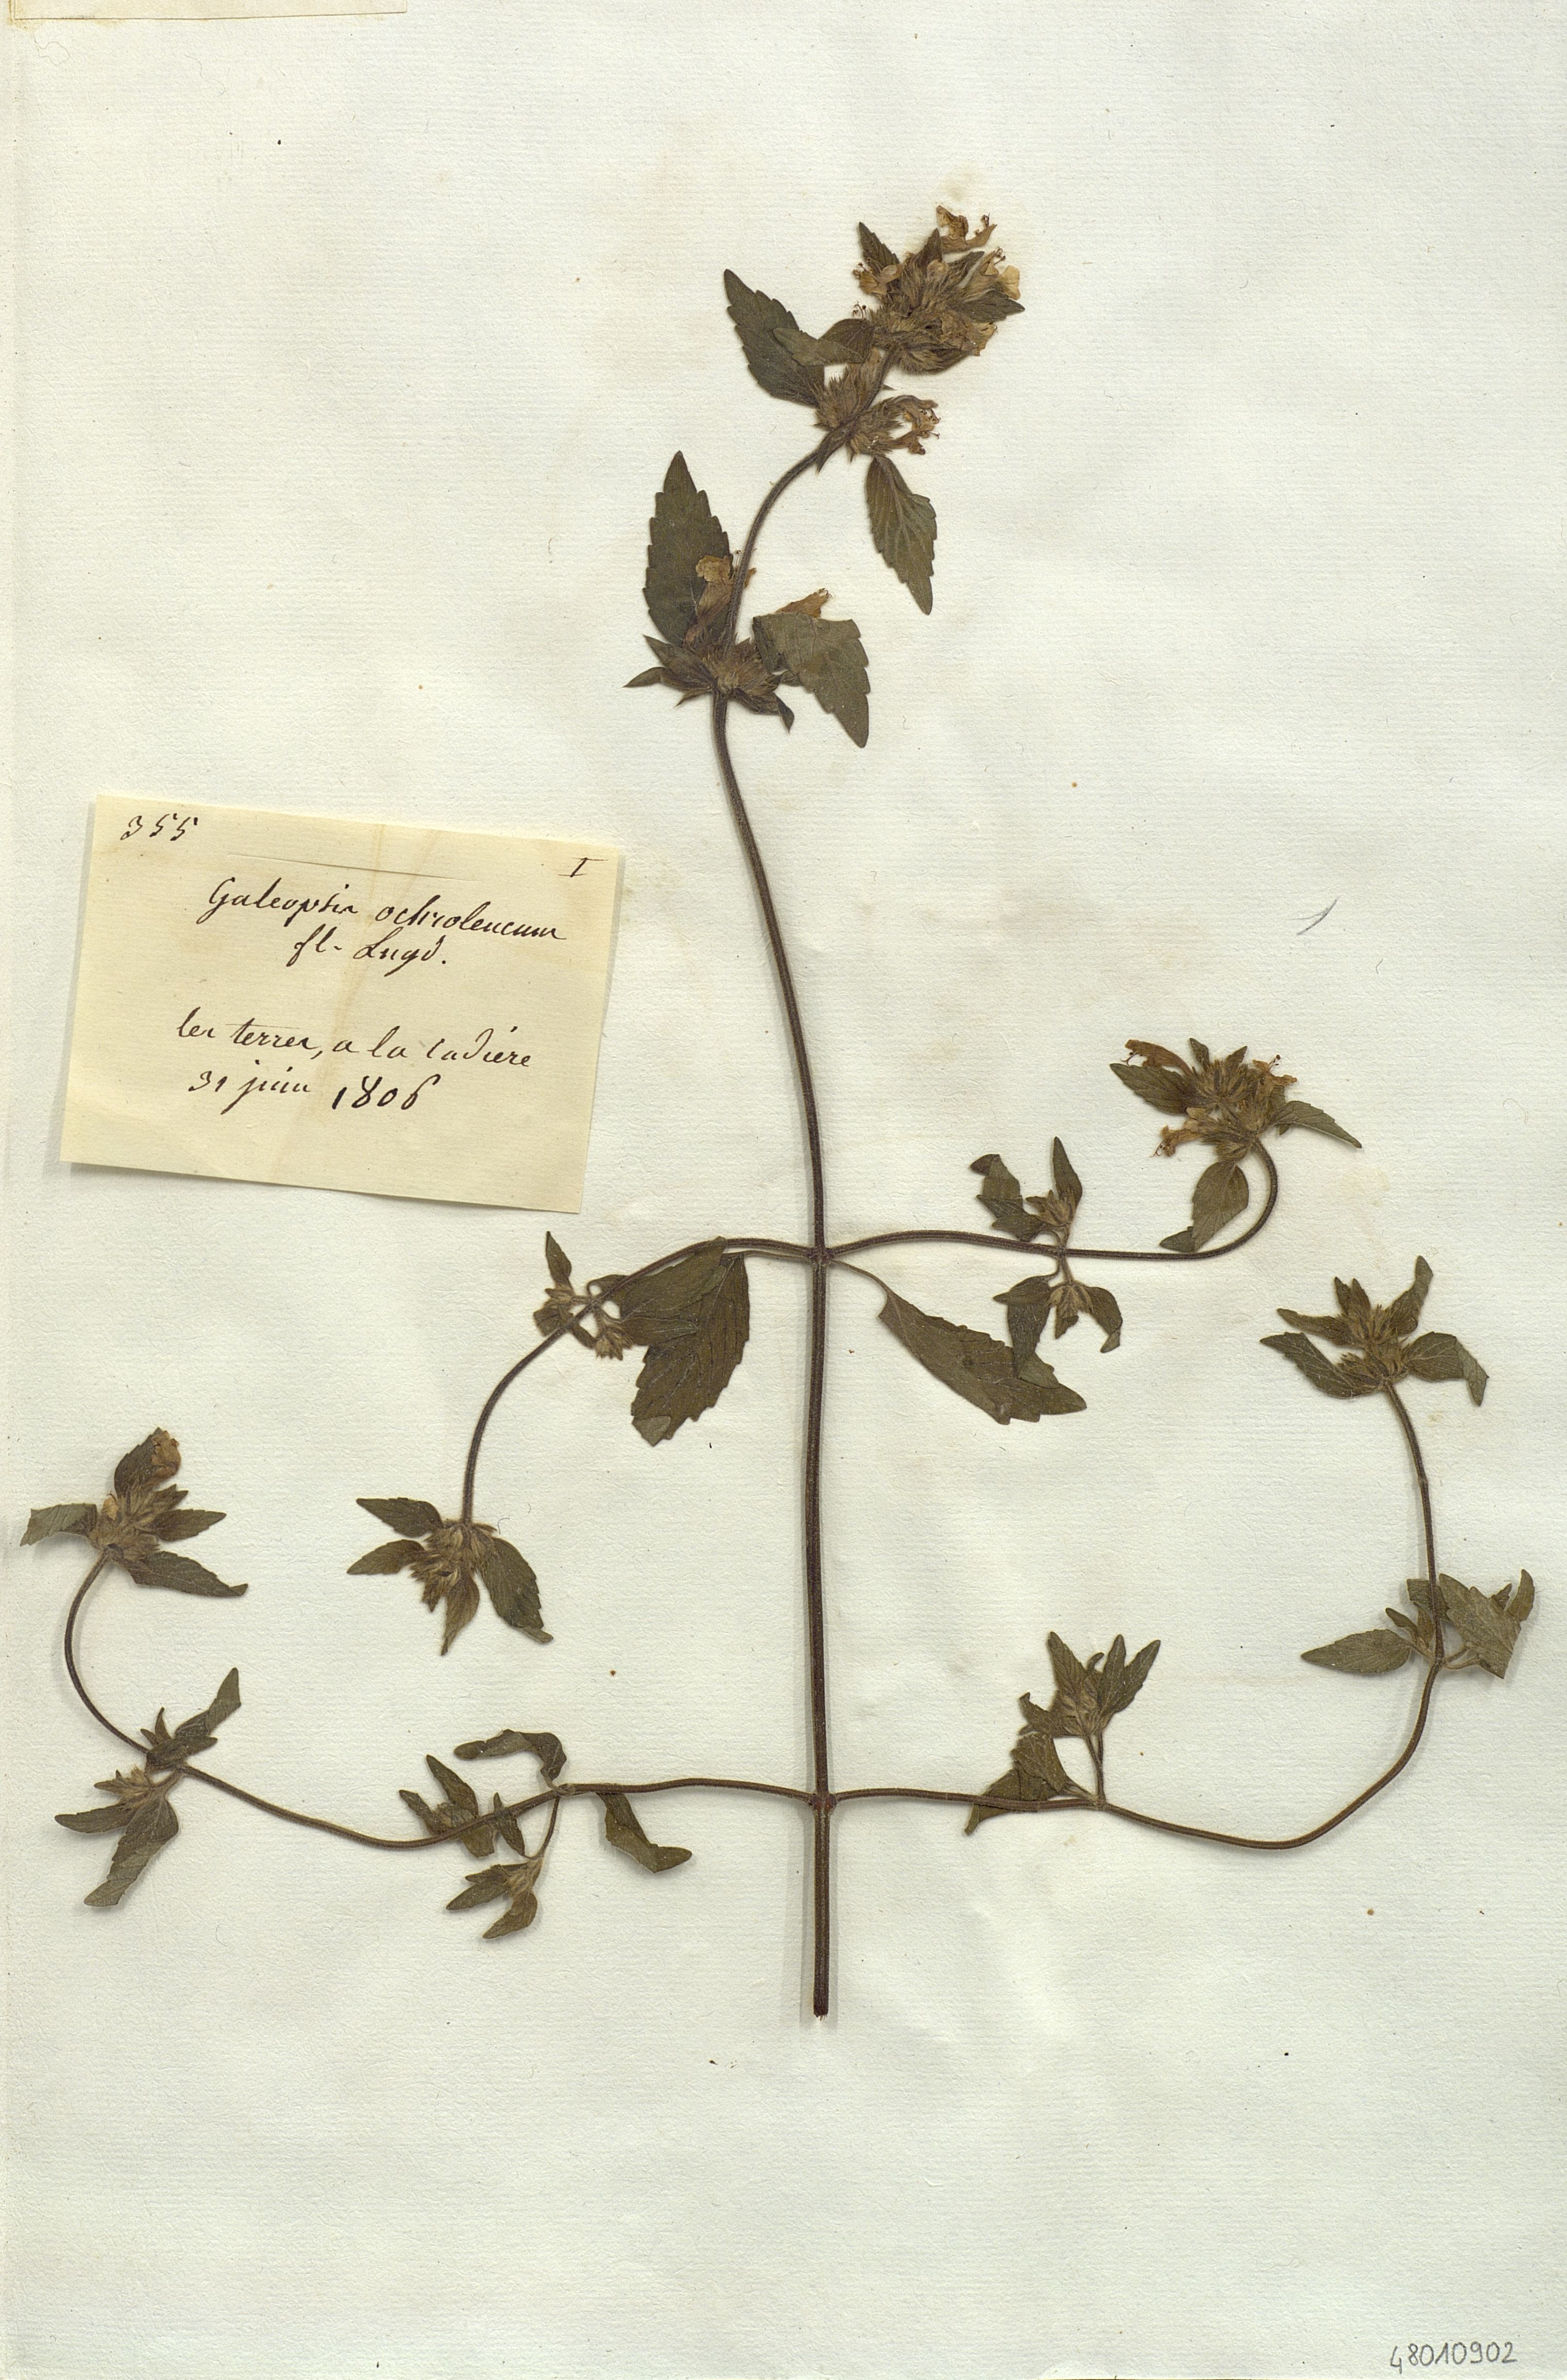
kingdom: Plantae
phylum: Tracheophyta
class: Magnoliopsida
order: Lamiales
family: Lamiaceae
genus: Galeopsis
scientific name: Galeopsis segetum
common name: Downy hemp-nettle
